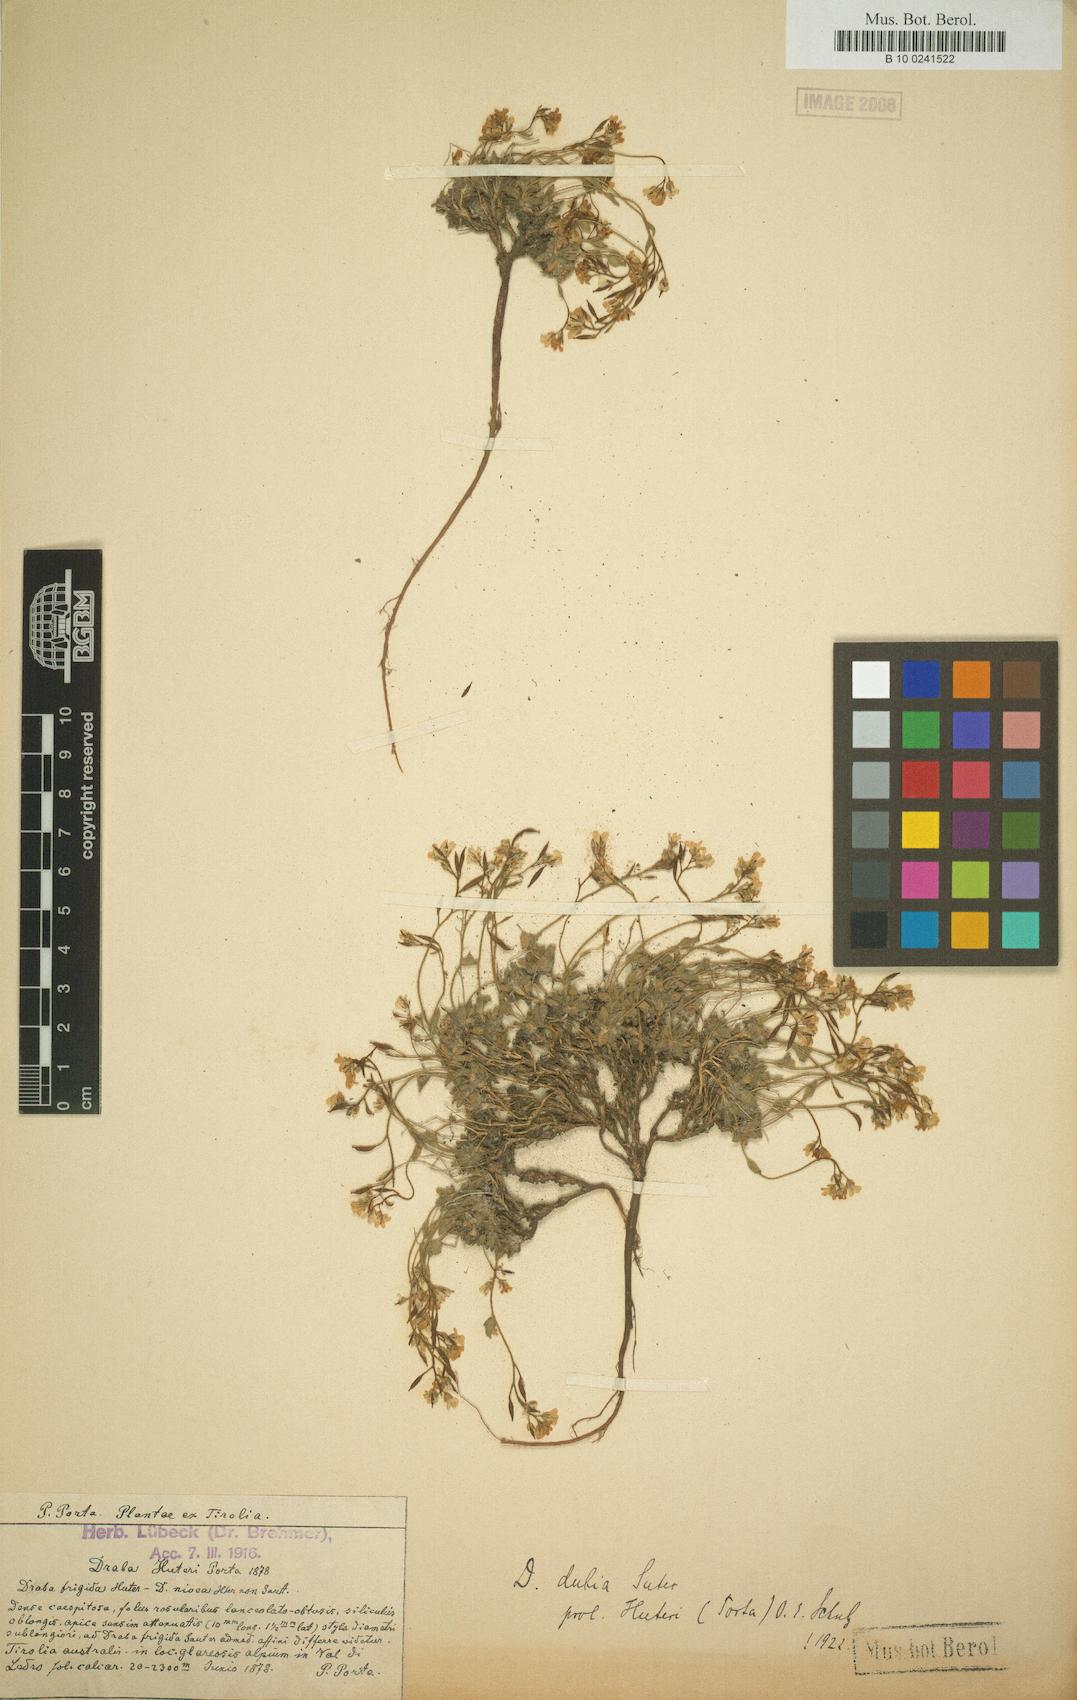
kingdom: Plantae
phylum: Tracheophyta
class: Magnoliopsida
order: Brassicales
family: Brassicaceae
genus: Draba
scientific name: Draba dubia
